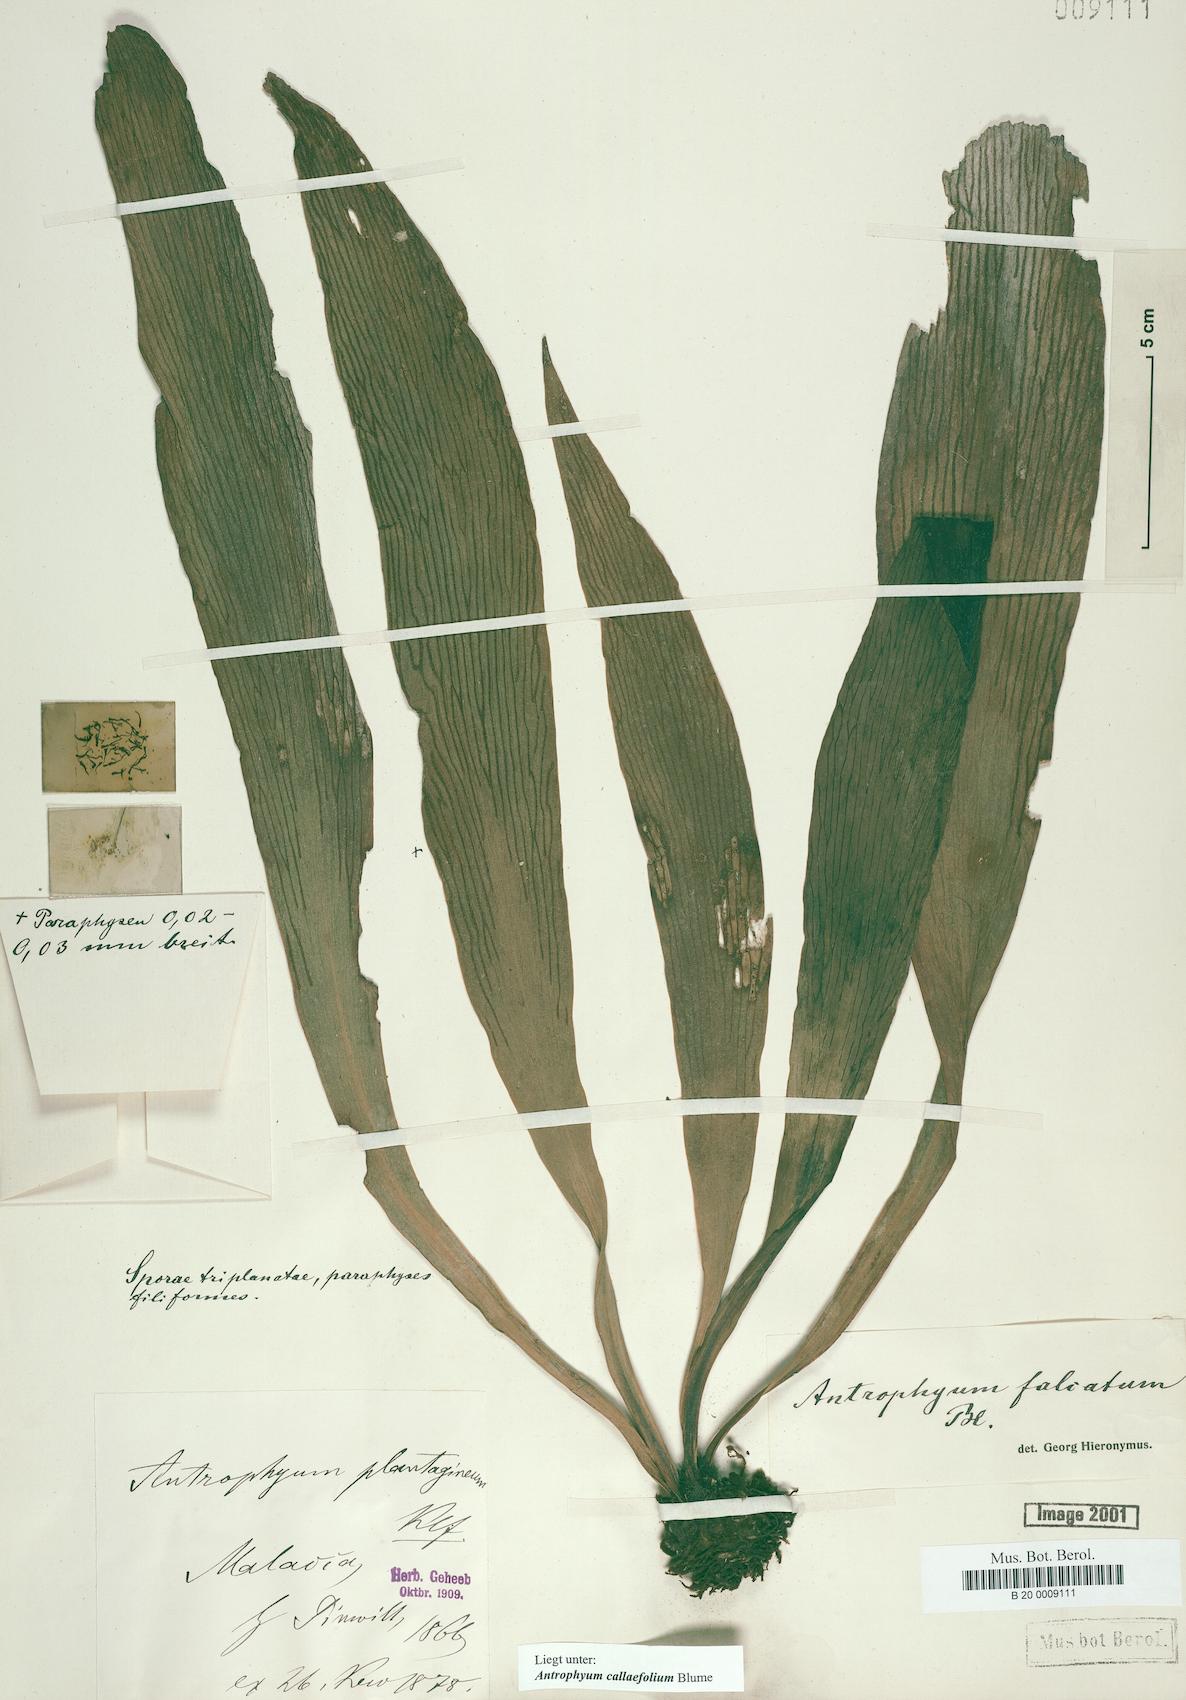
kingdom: Plantae
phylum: Tracheophyta
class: Polypodiopsida
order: Polypodiales
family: Pteridaceae
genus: Antrophyum
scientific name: Antrophyum callifolium
